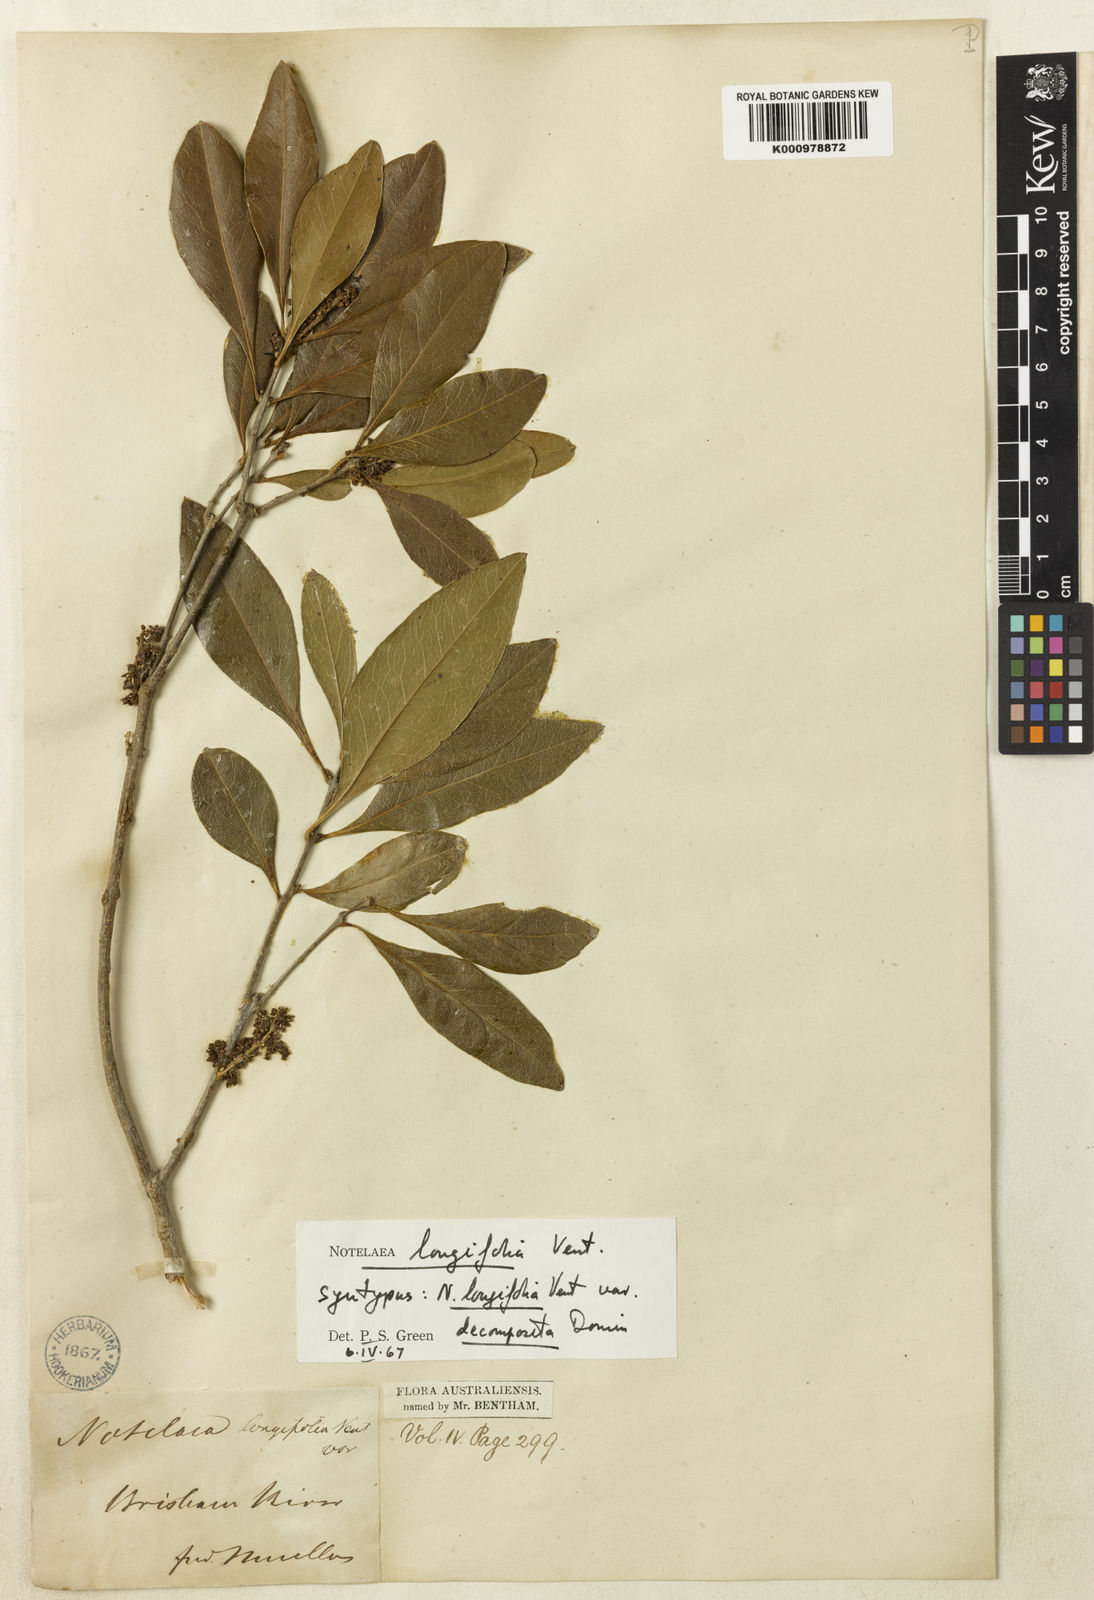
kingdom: Plantae
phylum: Tracheophyta
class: Magnoliopsida
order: Lamiales
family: Oleaceae
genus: Notelaea
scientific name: Notelaea longifolia
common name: Large mock olive
